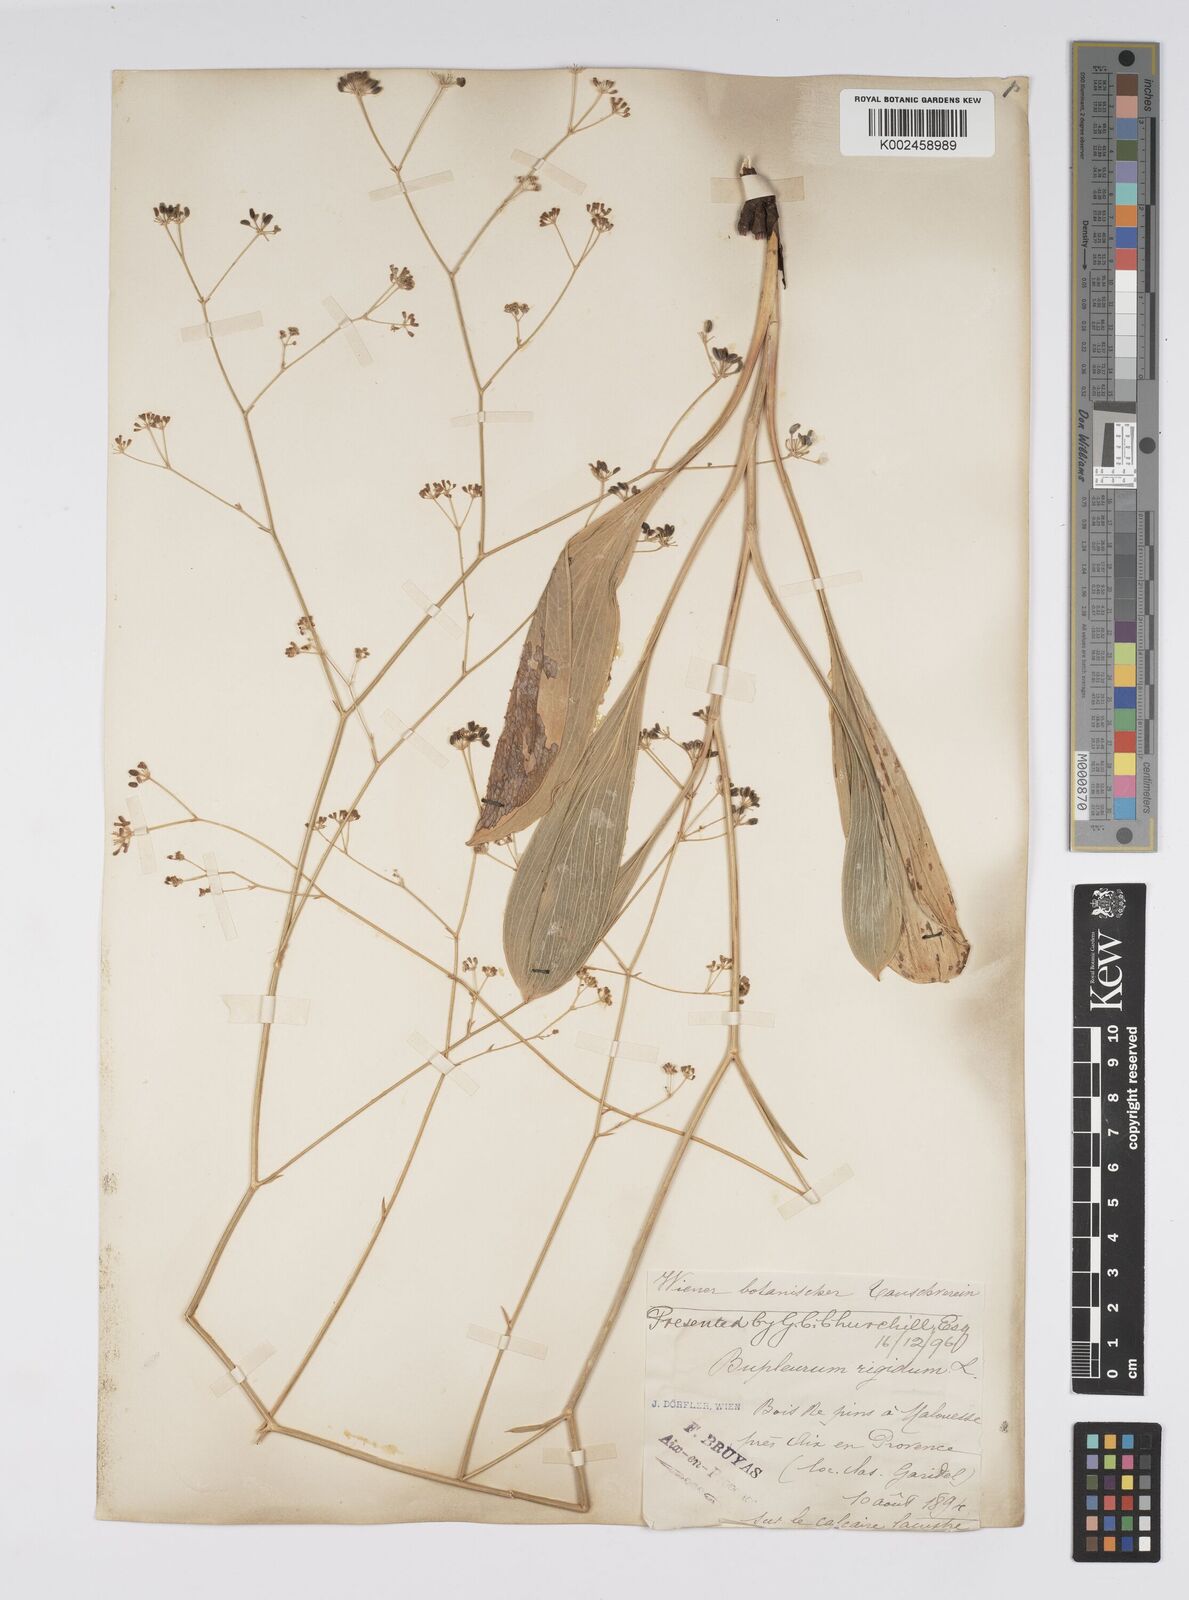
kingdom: Plantae
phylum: Tracheophyta
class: Magnoliopsida
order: Apiales
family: Apiaceae
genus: Bupleurum
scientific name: Bupleurum rigidum
